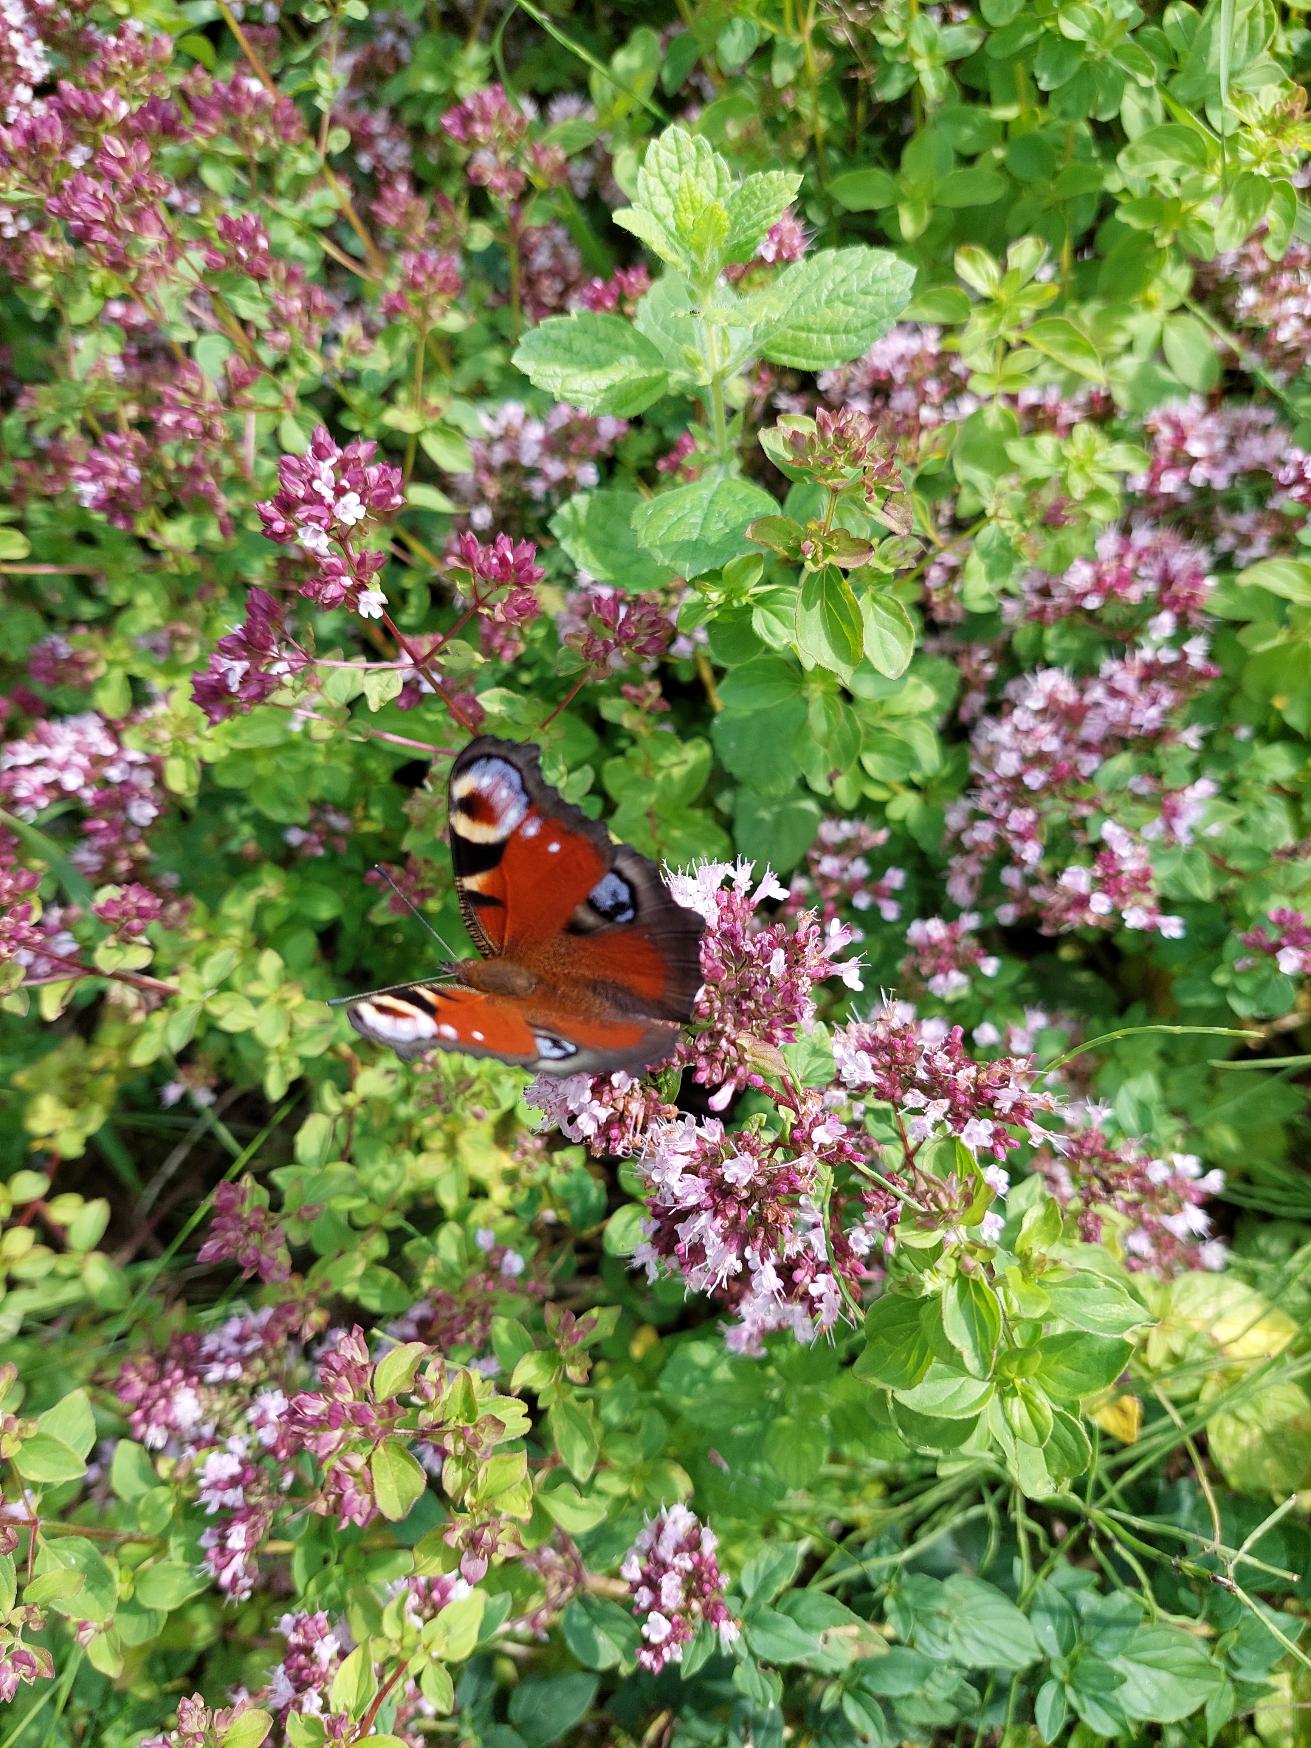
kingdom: Animalia
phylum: Arthropoda
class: Insecta
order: Lepidoptera
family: Nymphalidae
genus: Aglais
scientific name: Aglais io
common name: Dagpåfugleøje
